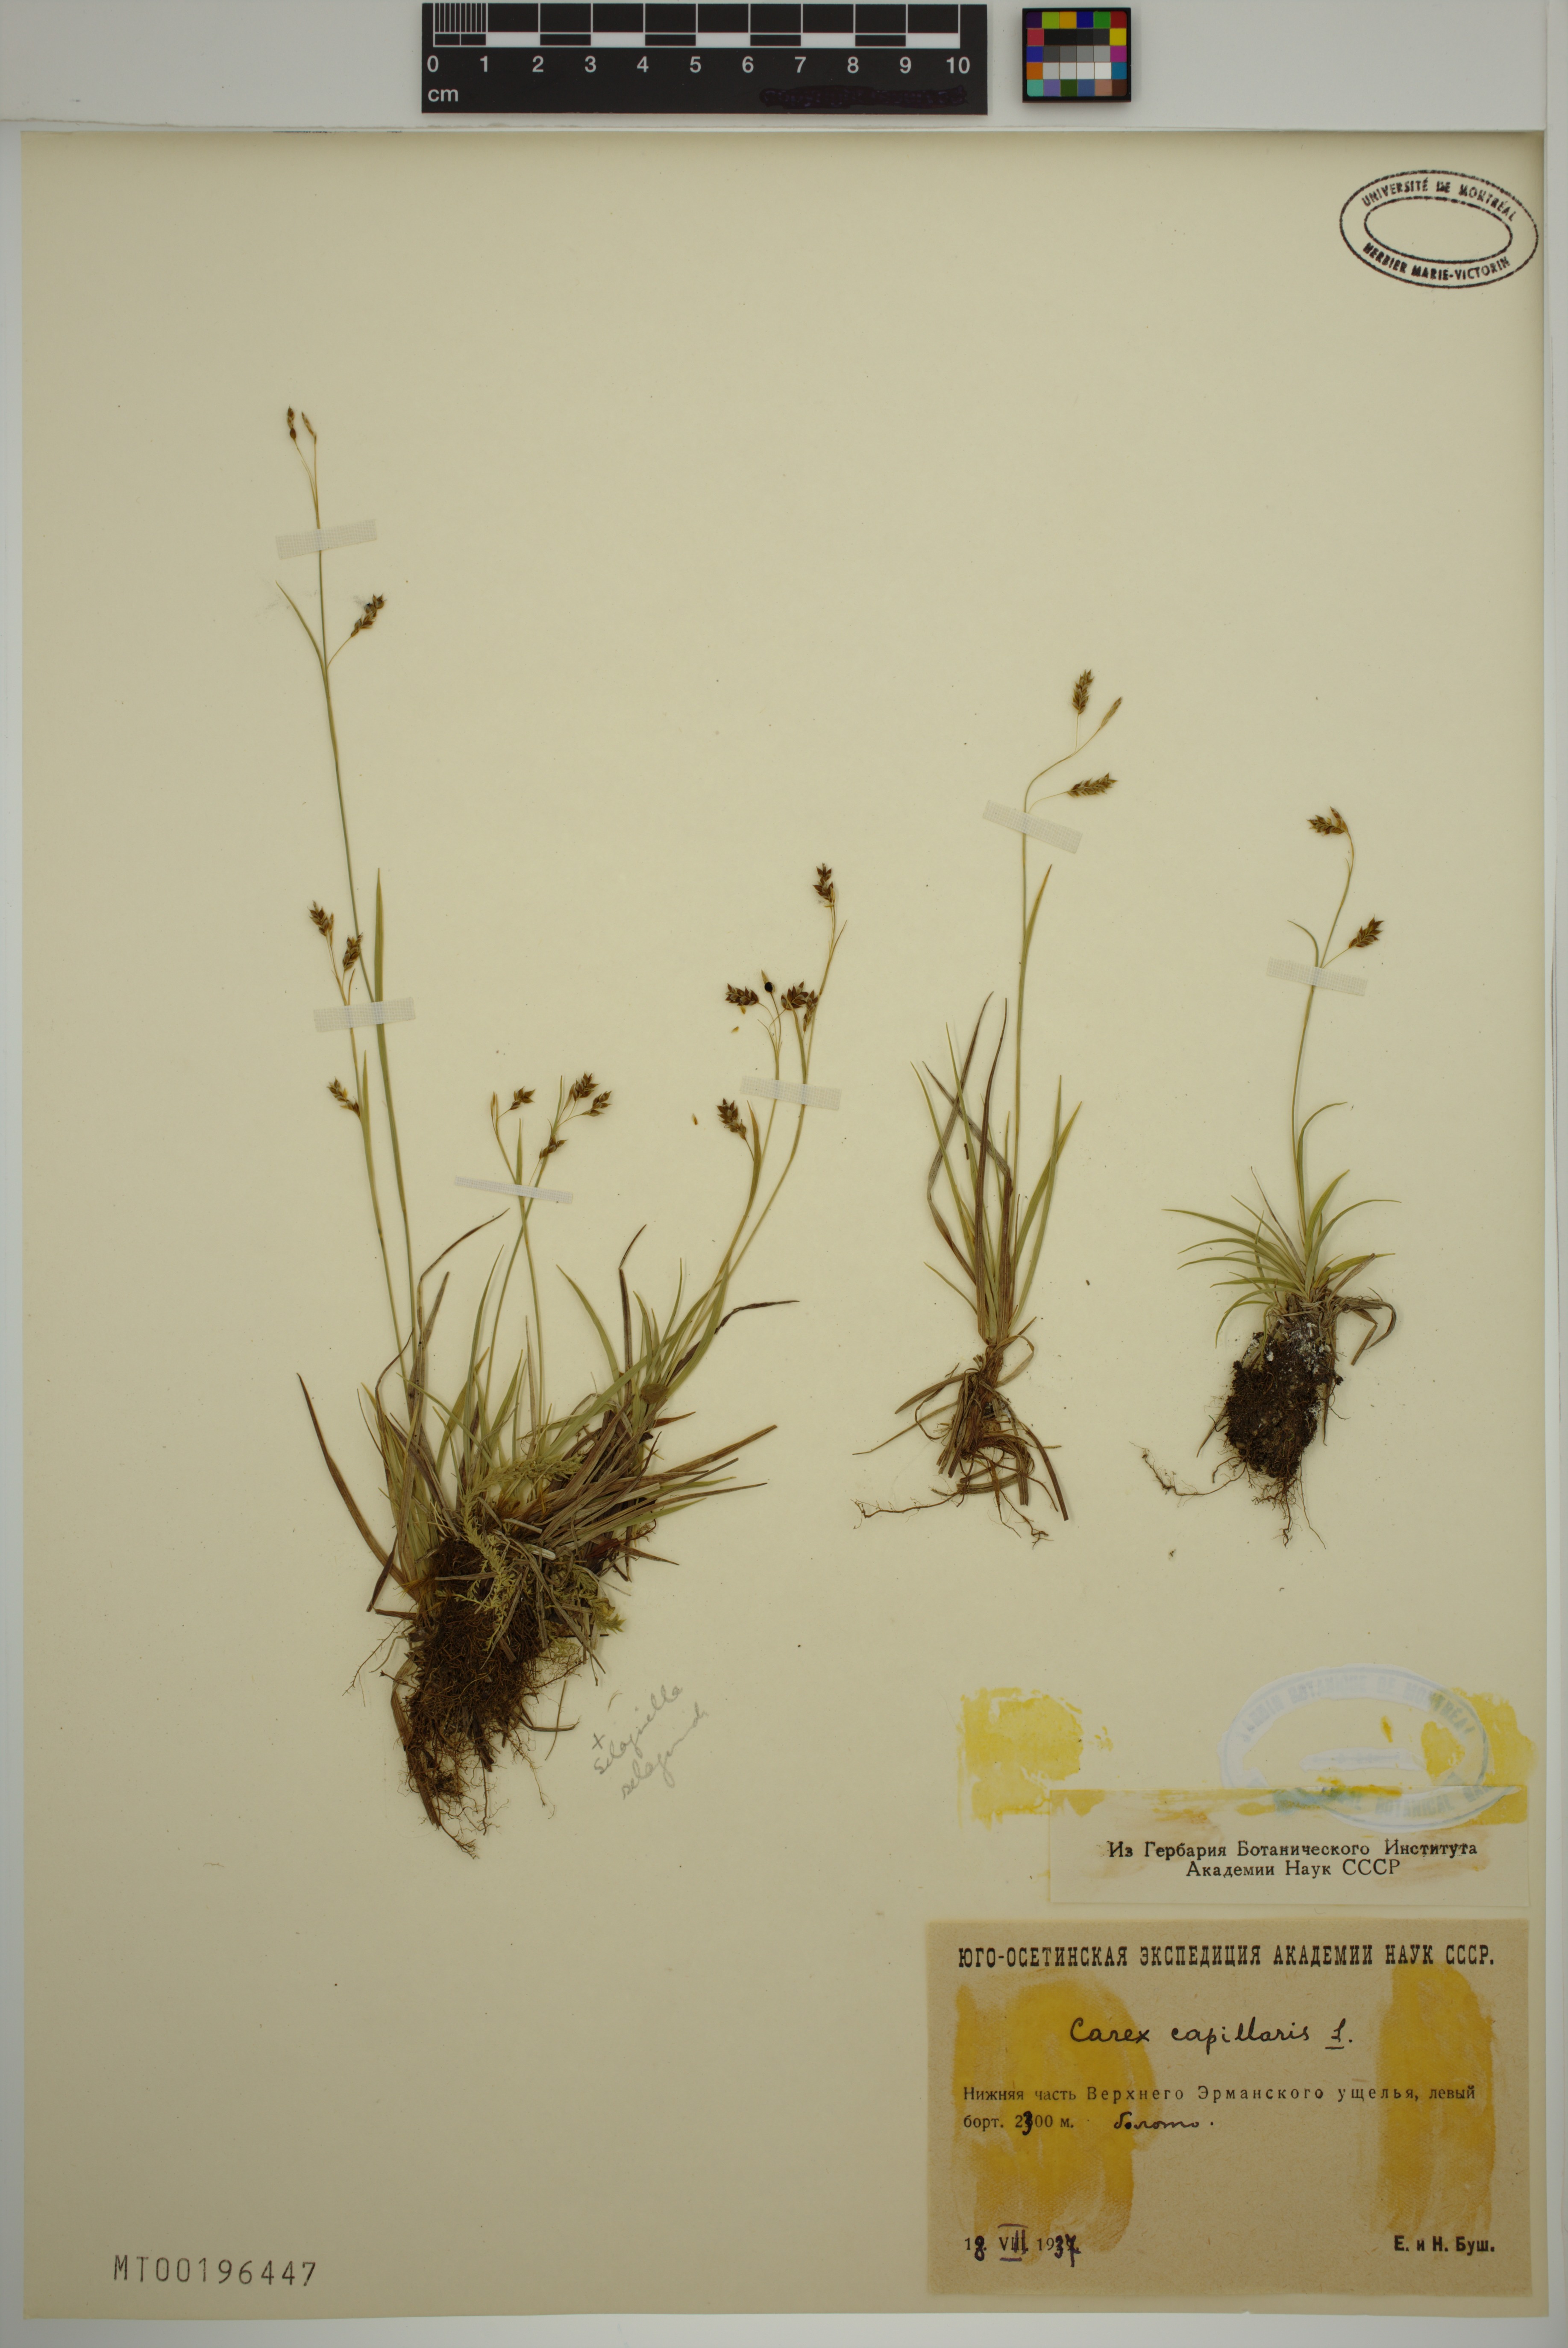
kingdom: Plantae
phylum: Tracheophyta
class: Liliopsida
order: Poales
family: Cyperaceae
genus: Carex
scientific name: Carex capillaris
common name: Hair sedge
